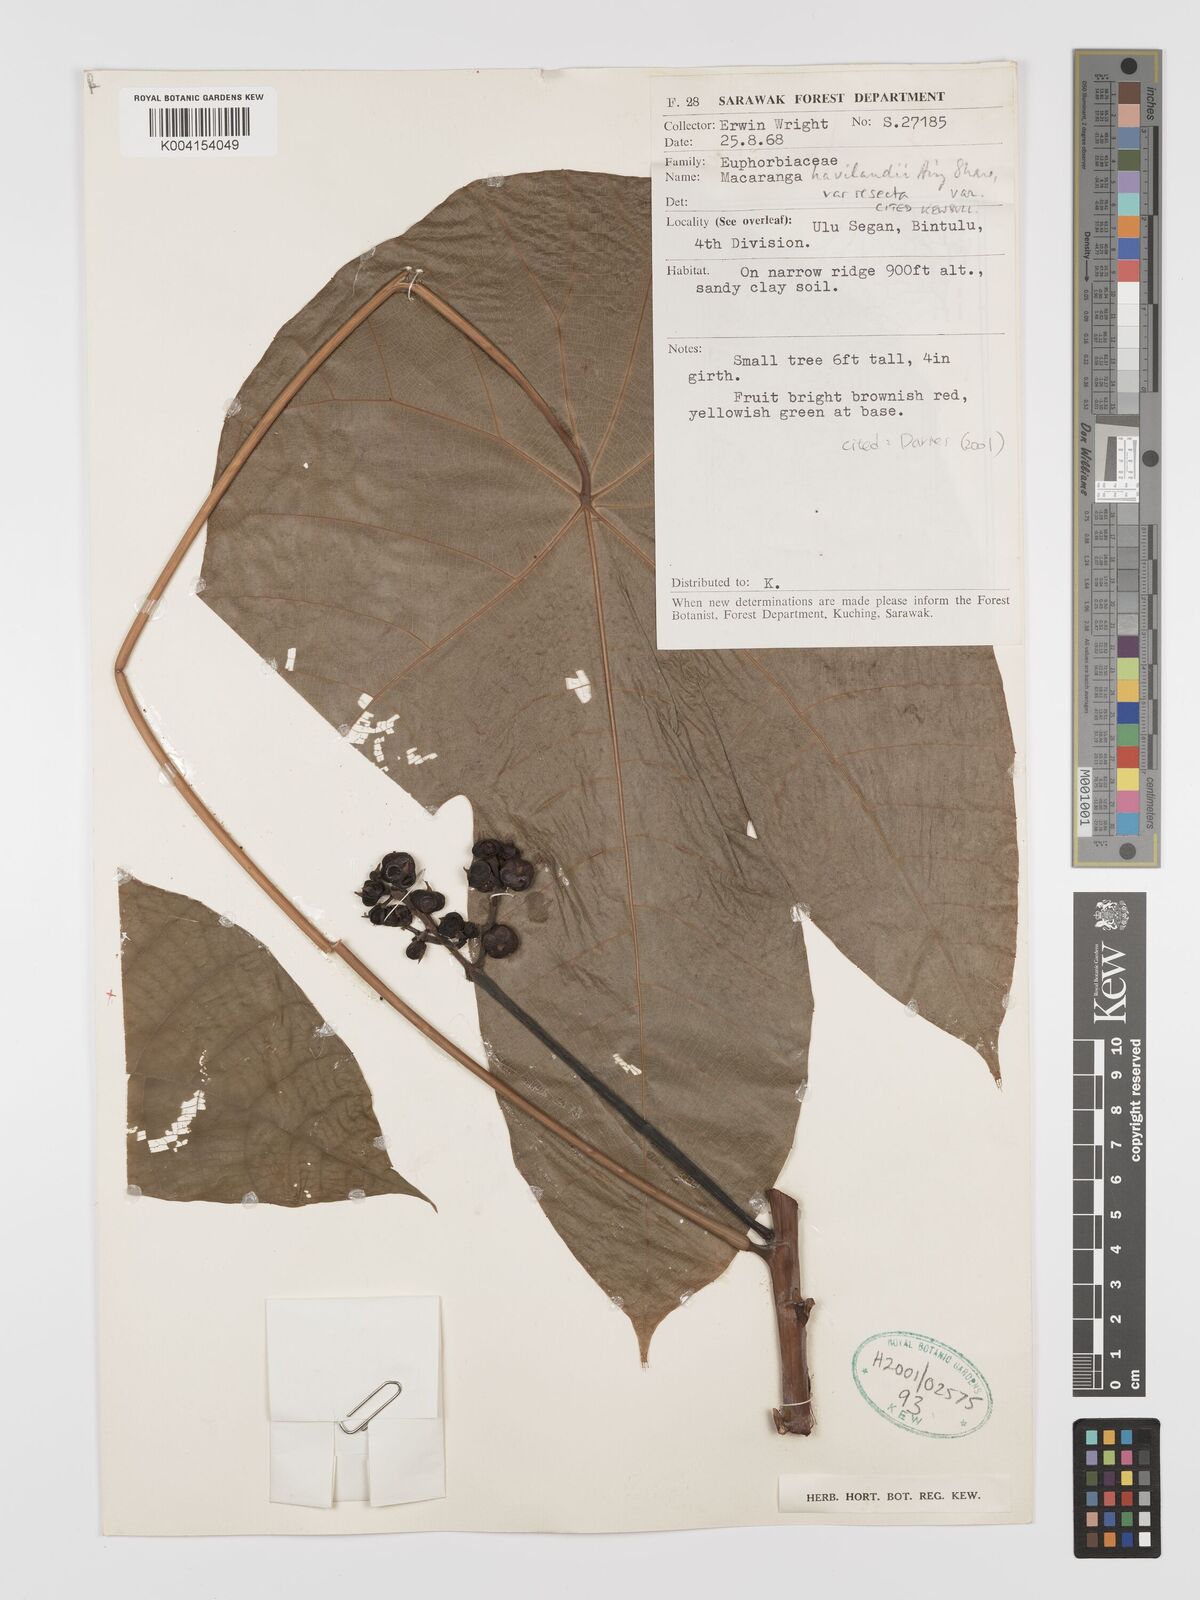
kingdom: Plantae
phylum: Tracheophyta
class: Magnoliopsida
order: Malpighiales
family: Euphorbiaceae
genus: Macaranga
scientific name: Macaranga havilandii
